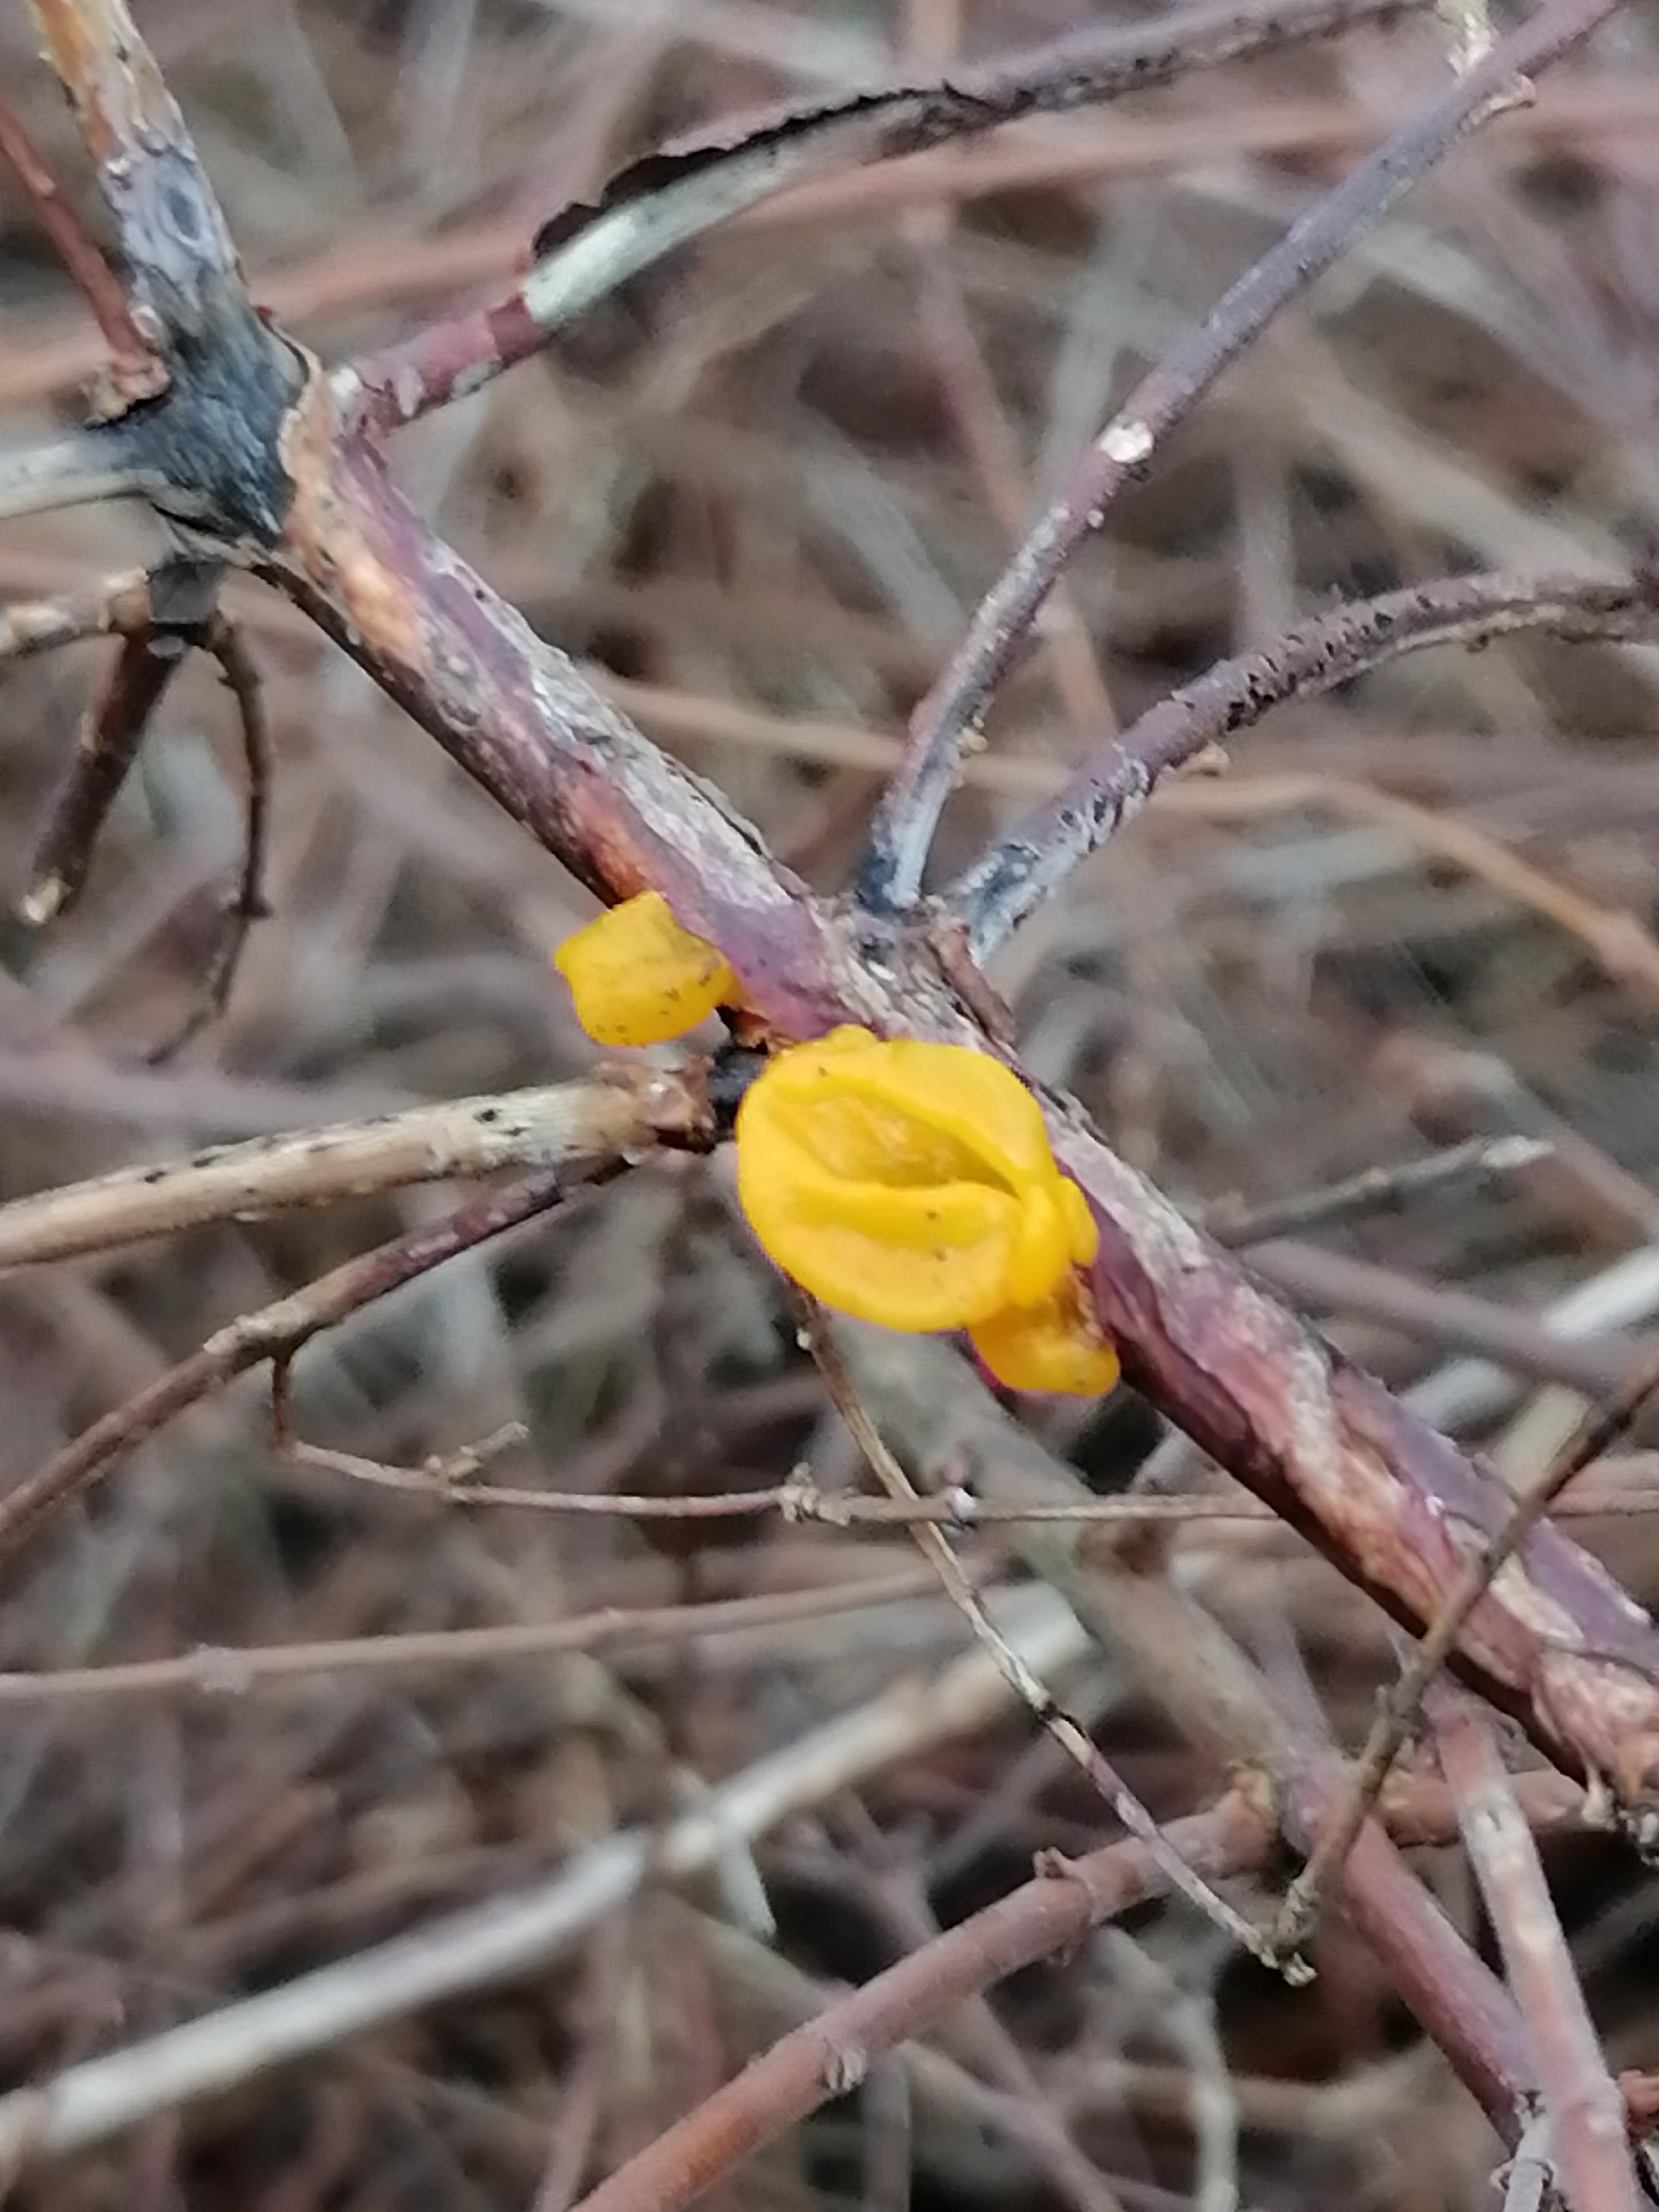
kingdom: Fungi
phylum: Basidiomycota
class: Tremellomycetes
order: Tremellales
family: Tremellaceae
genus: Tremella
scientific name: Tremella mesenterica
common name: gul bævresvamp
